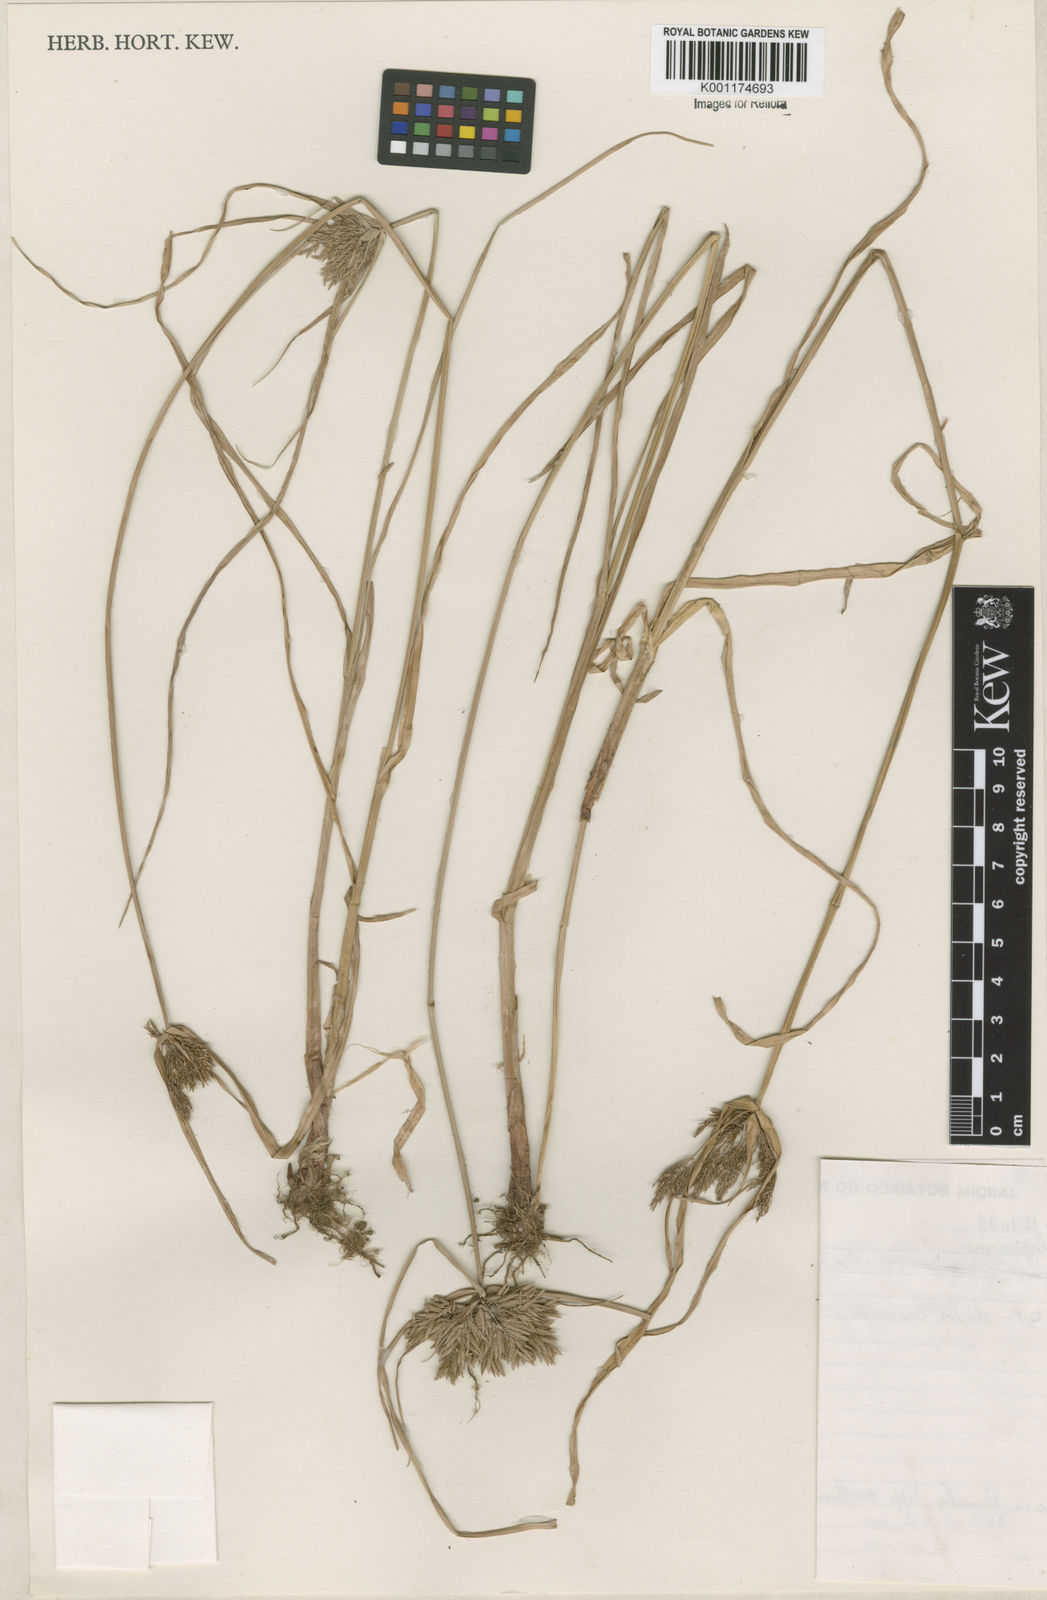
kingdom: Plantae
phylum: Tracheophyta
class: Liliopsida
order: Poales
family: Cyperaceae
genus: Cyperus
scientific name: Cyperus polystachyos
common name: Bunchy flat sedge
